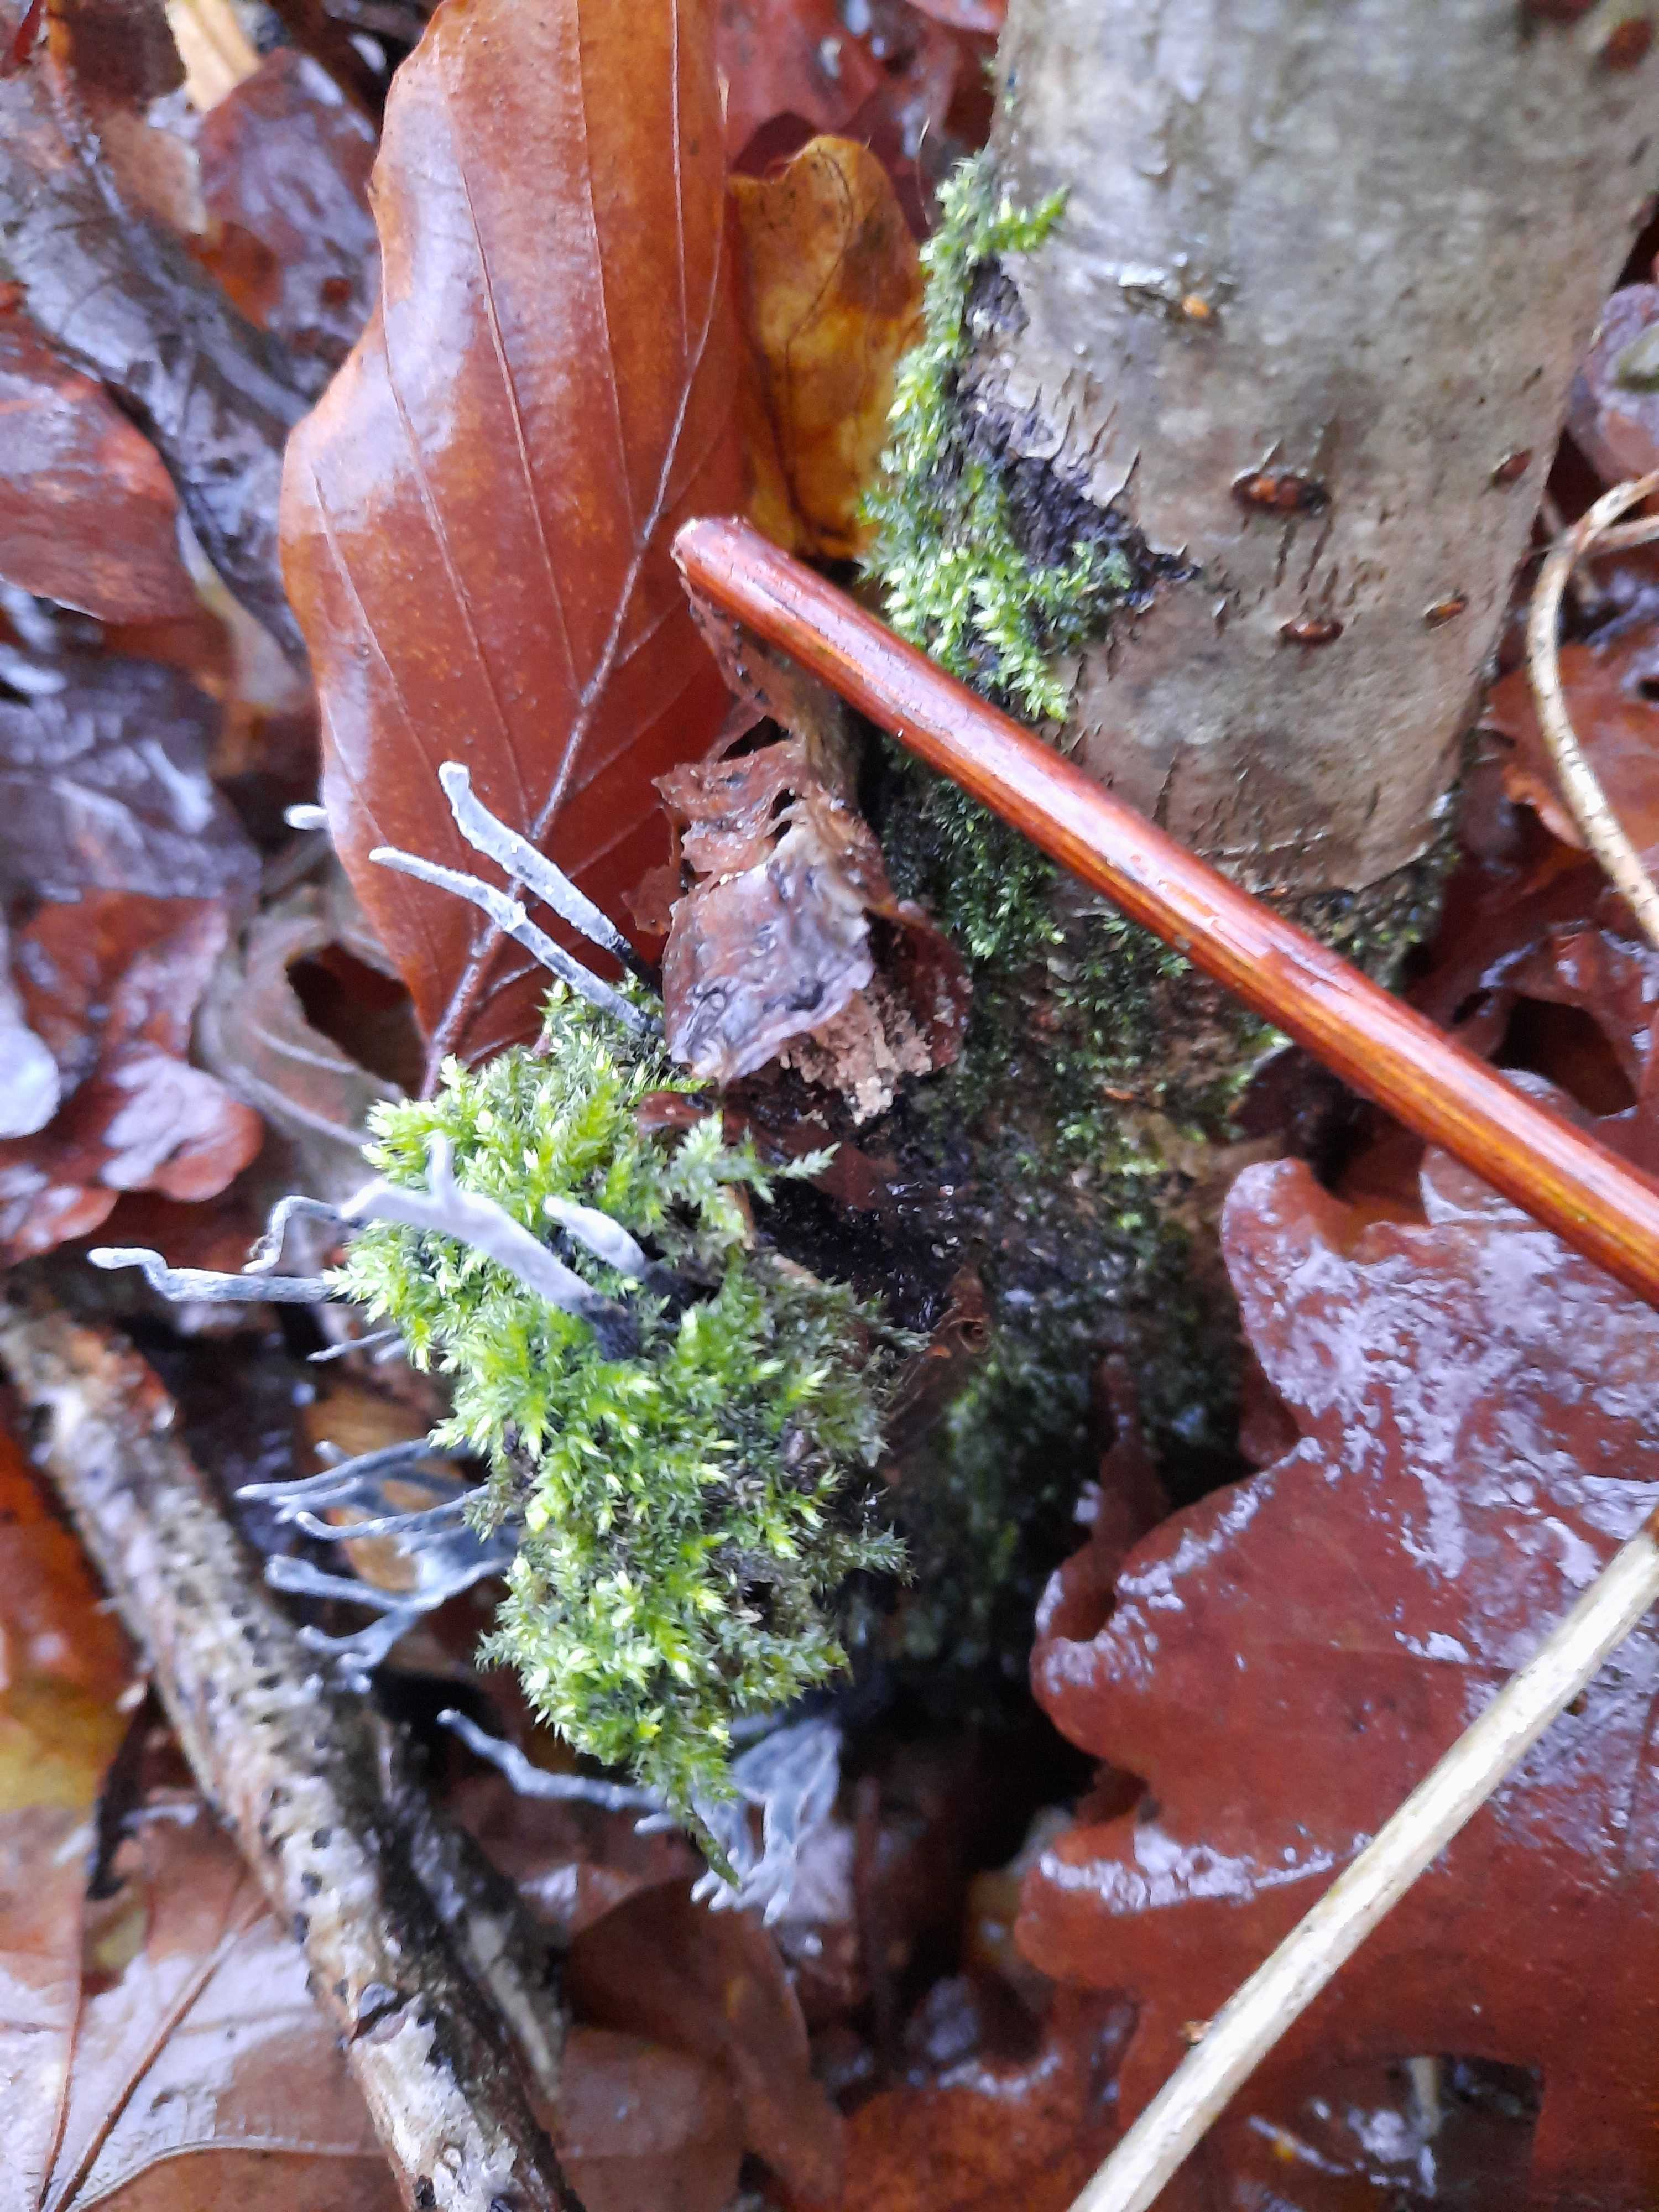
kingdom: Fungi
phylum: Ascomycota
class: Sordariomycetes
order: Xylariales
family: Xylariaceae
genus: Xylaria
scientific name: Xylaria hypoxylon
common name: grenet stødsvamp
